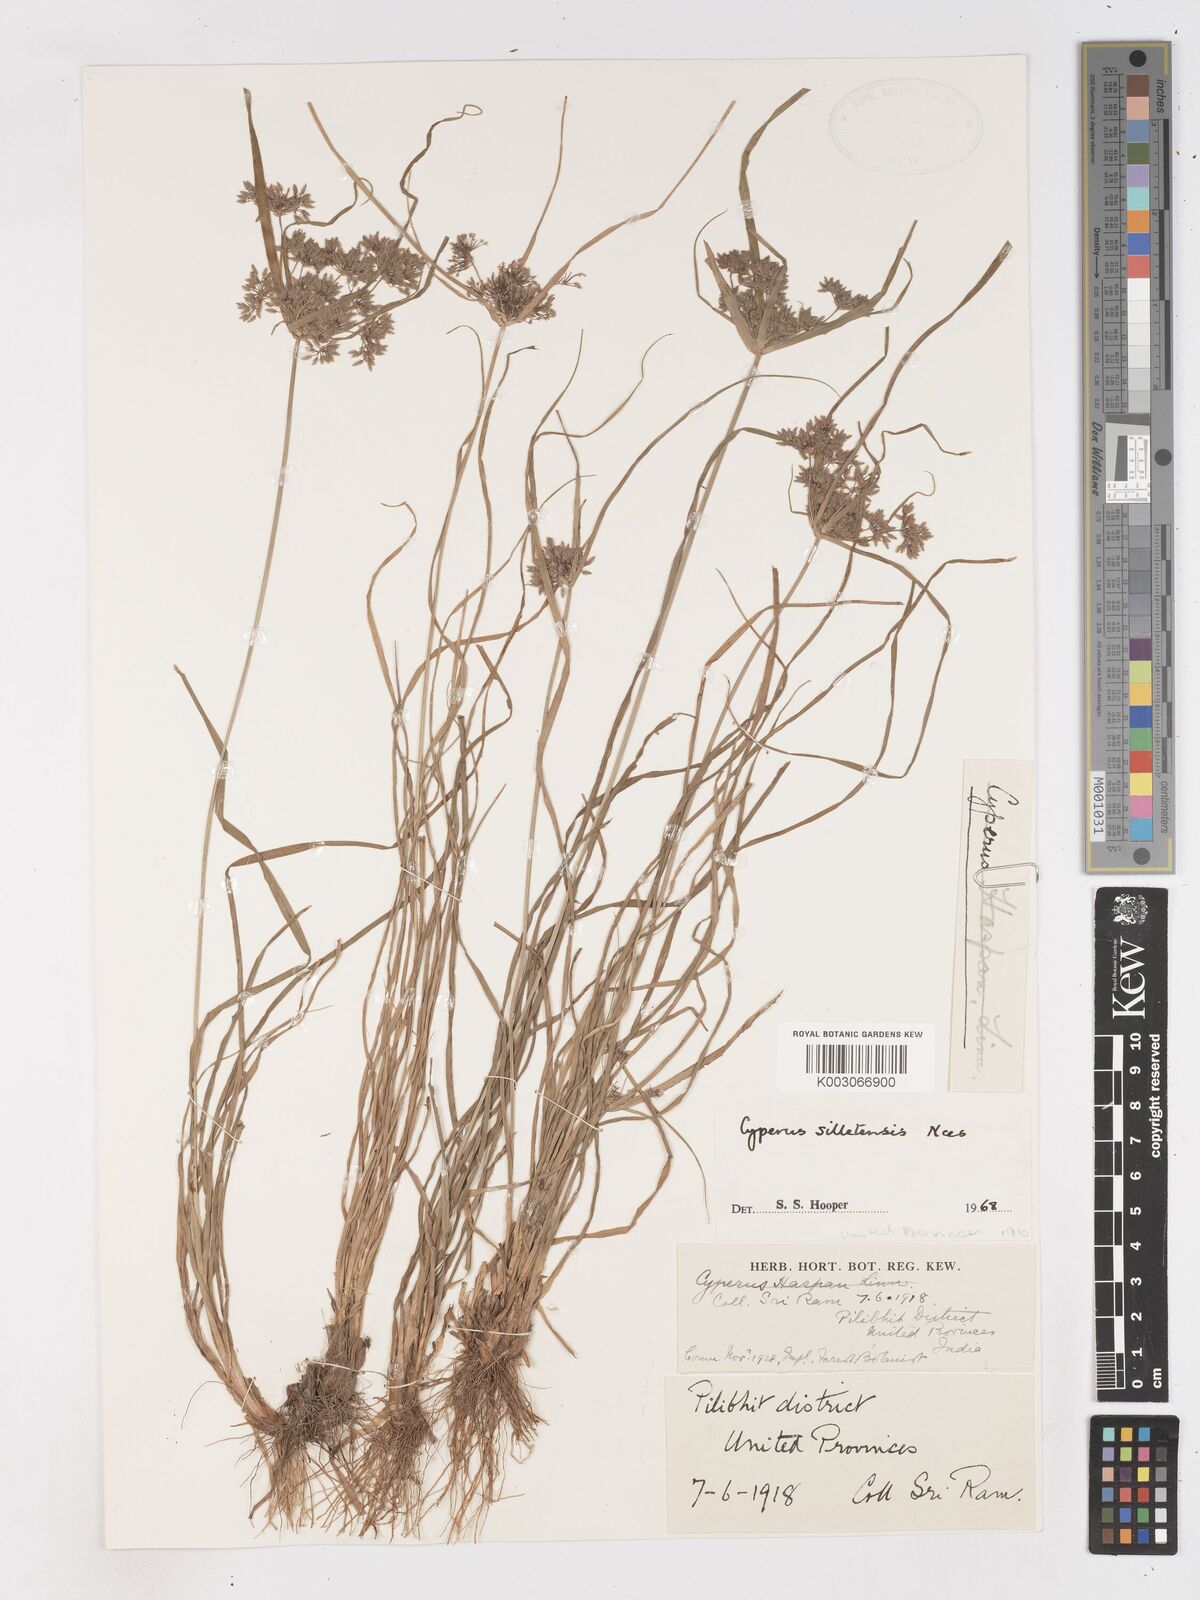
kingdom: Plantae
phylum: Tracheophyta
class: Liliopsida
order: Poales
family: Cyperaceae
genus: Cyperus
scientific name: Cyperus silletensis
